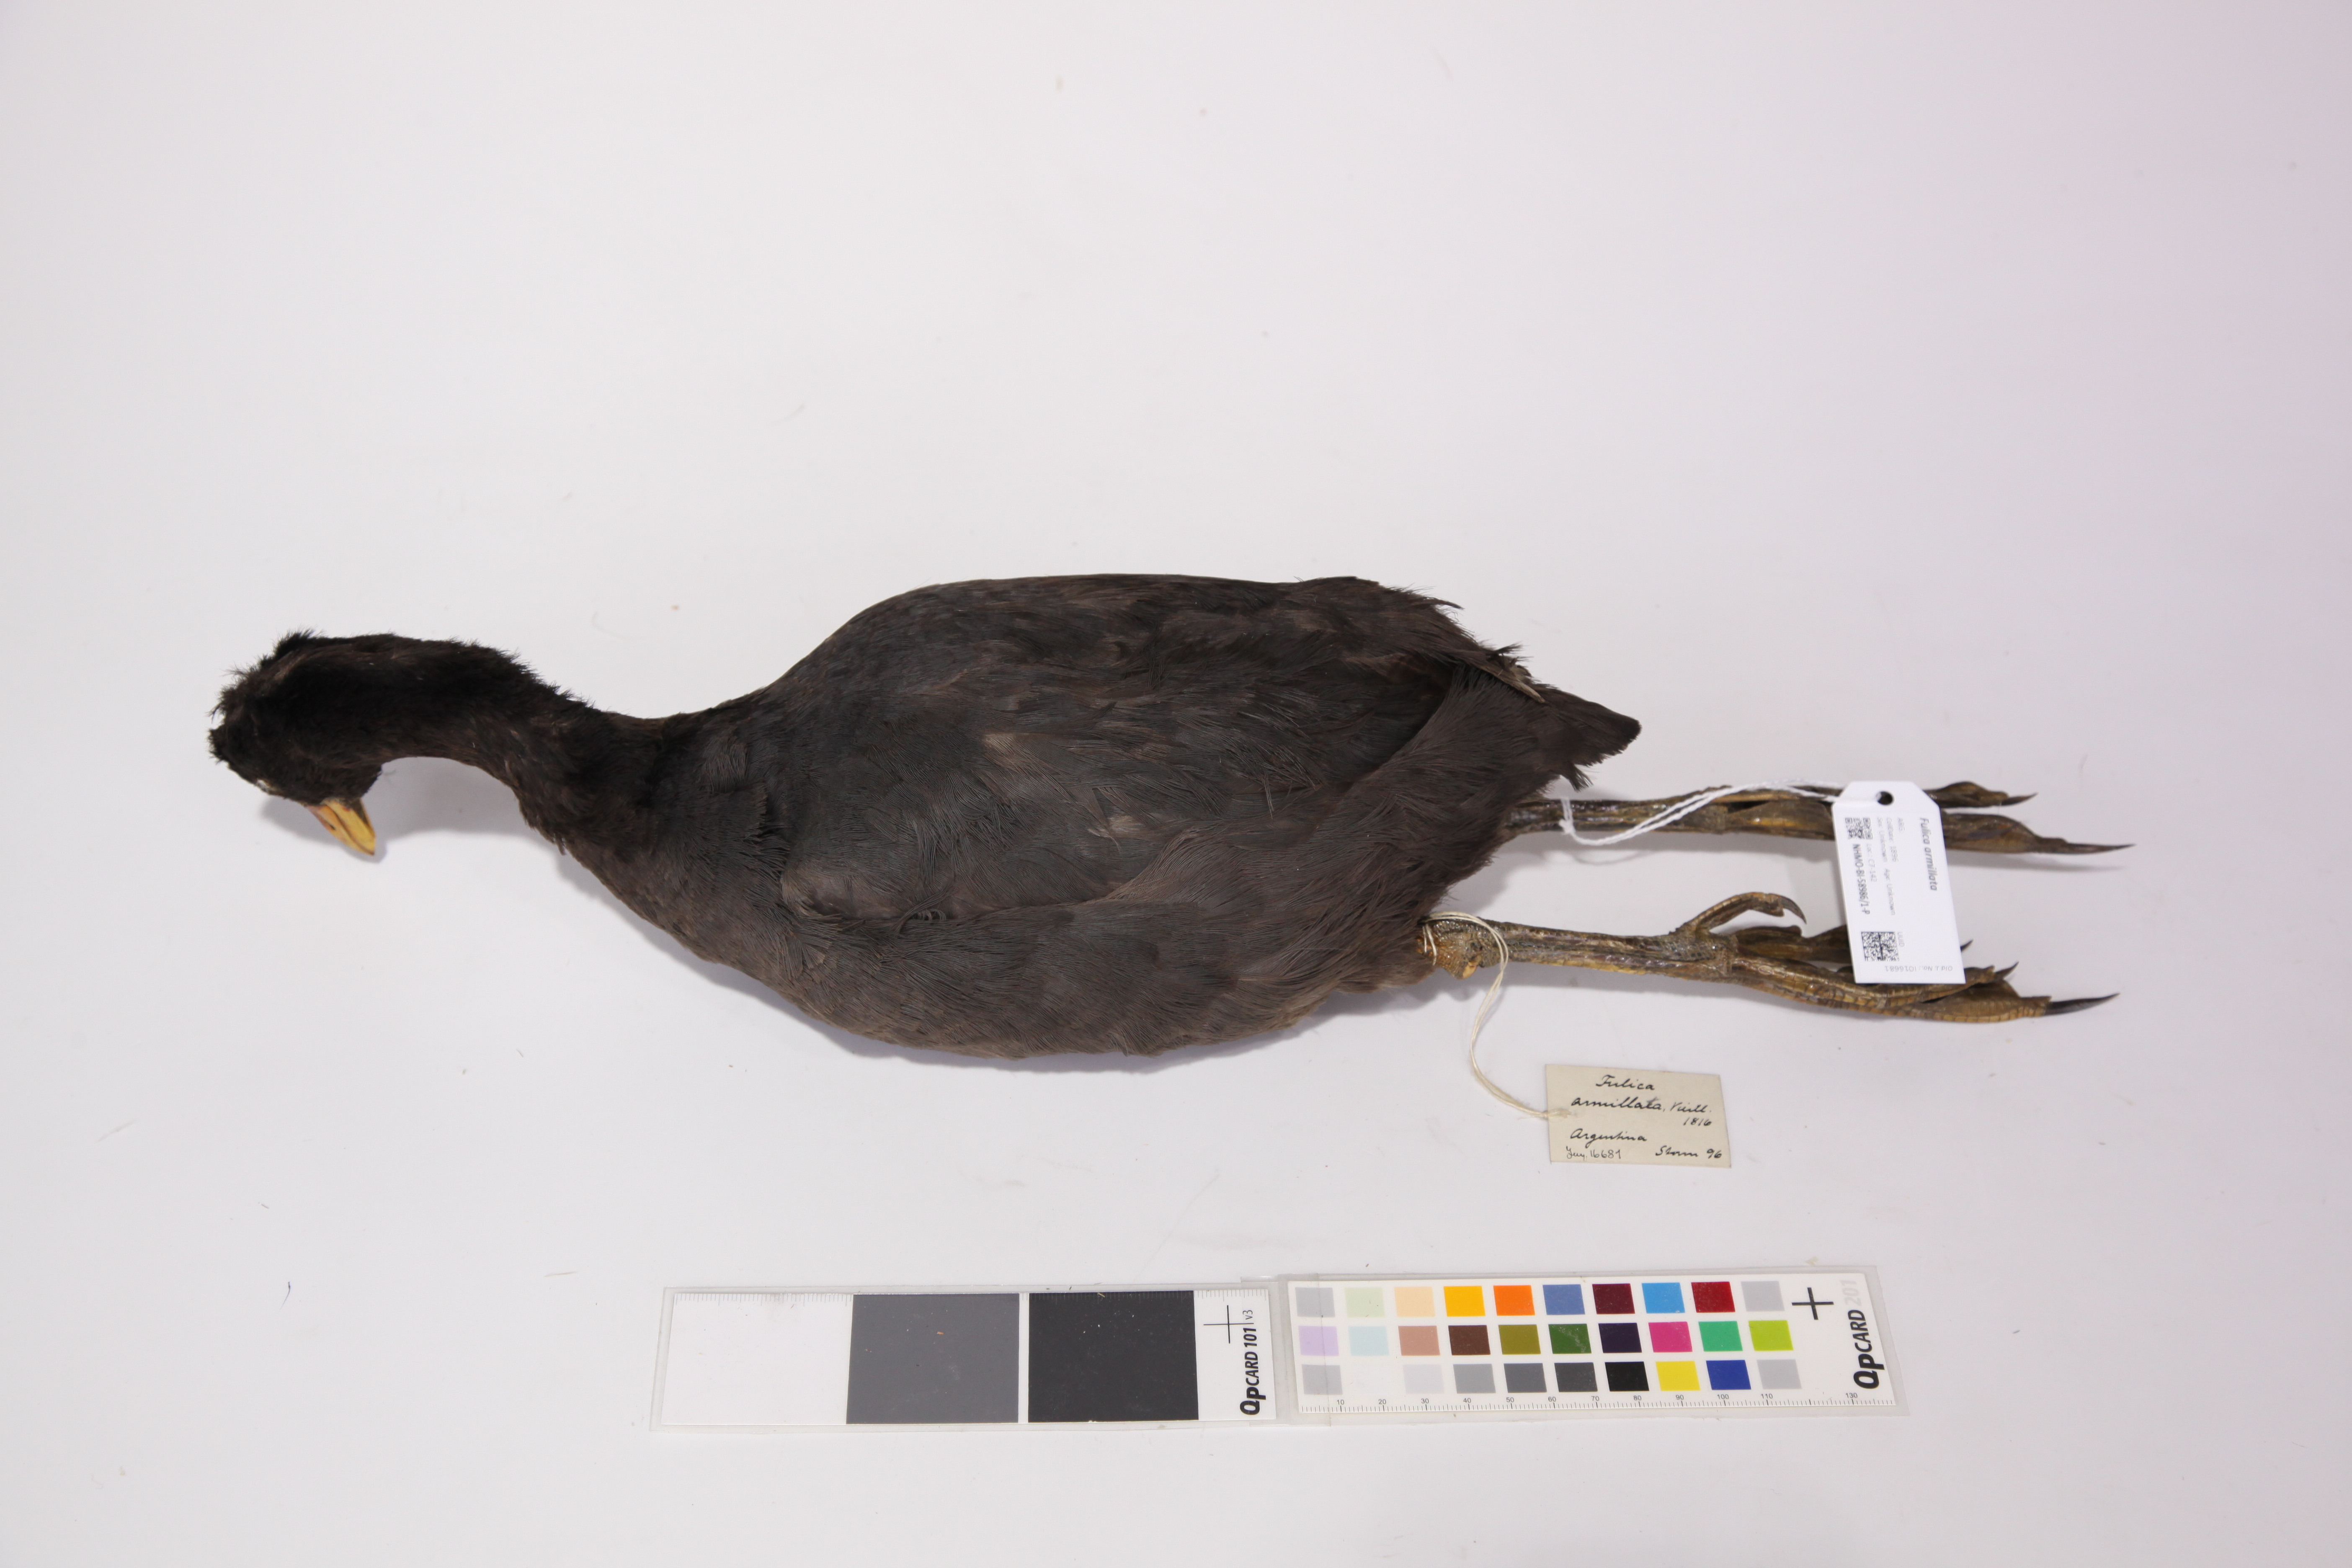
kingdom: Animalia
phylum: Chordata
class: Aves
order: Gruiformes
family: Rallidae
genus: Fulica
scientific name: Fulica armillata
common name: Red-gartered coot
